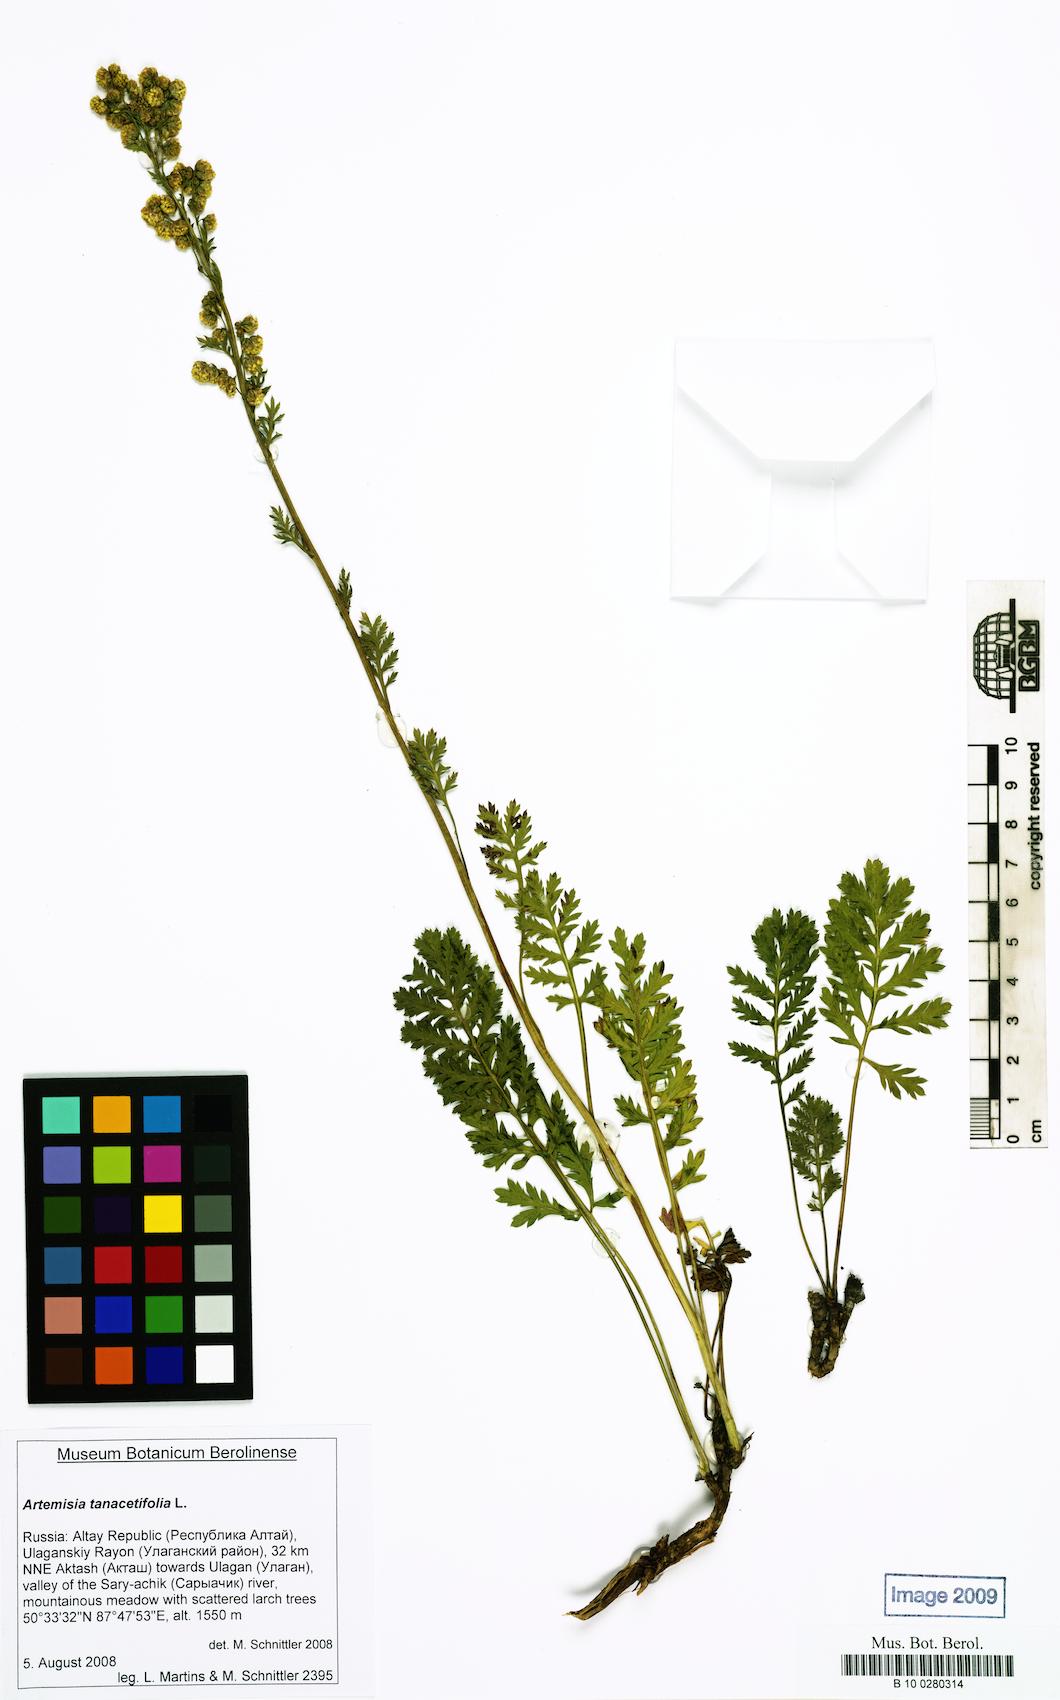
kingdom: Plantae
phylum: Tracheophyta
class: Magnoliopsida
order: Asterales
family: Asteraceae
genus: Artemisia
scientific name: Artemisia tanacetifolia
